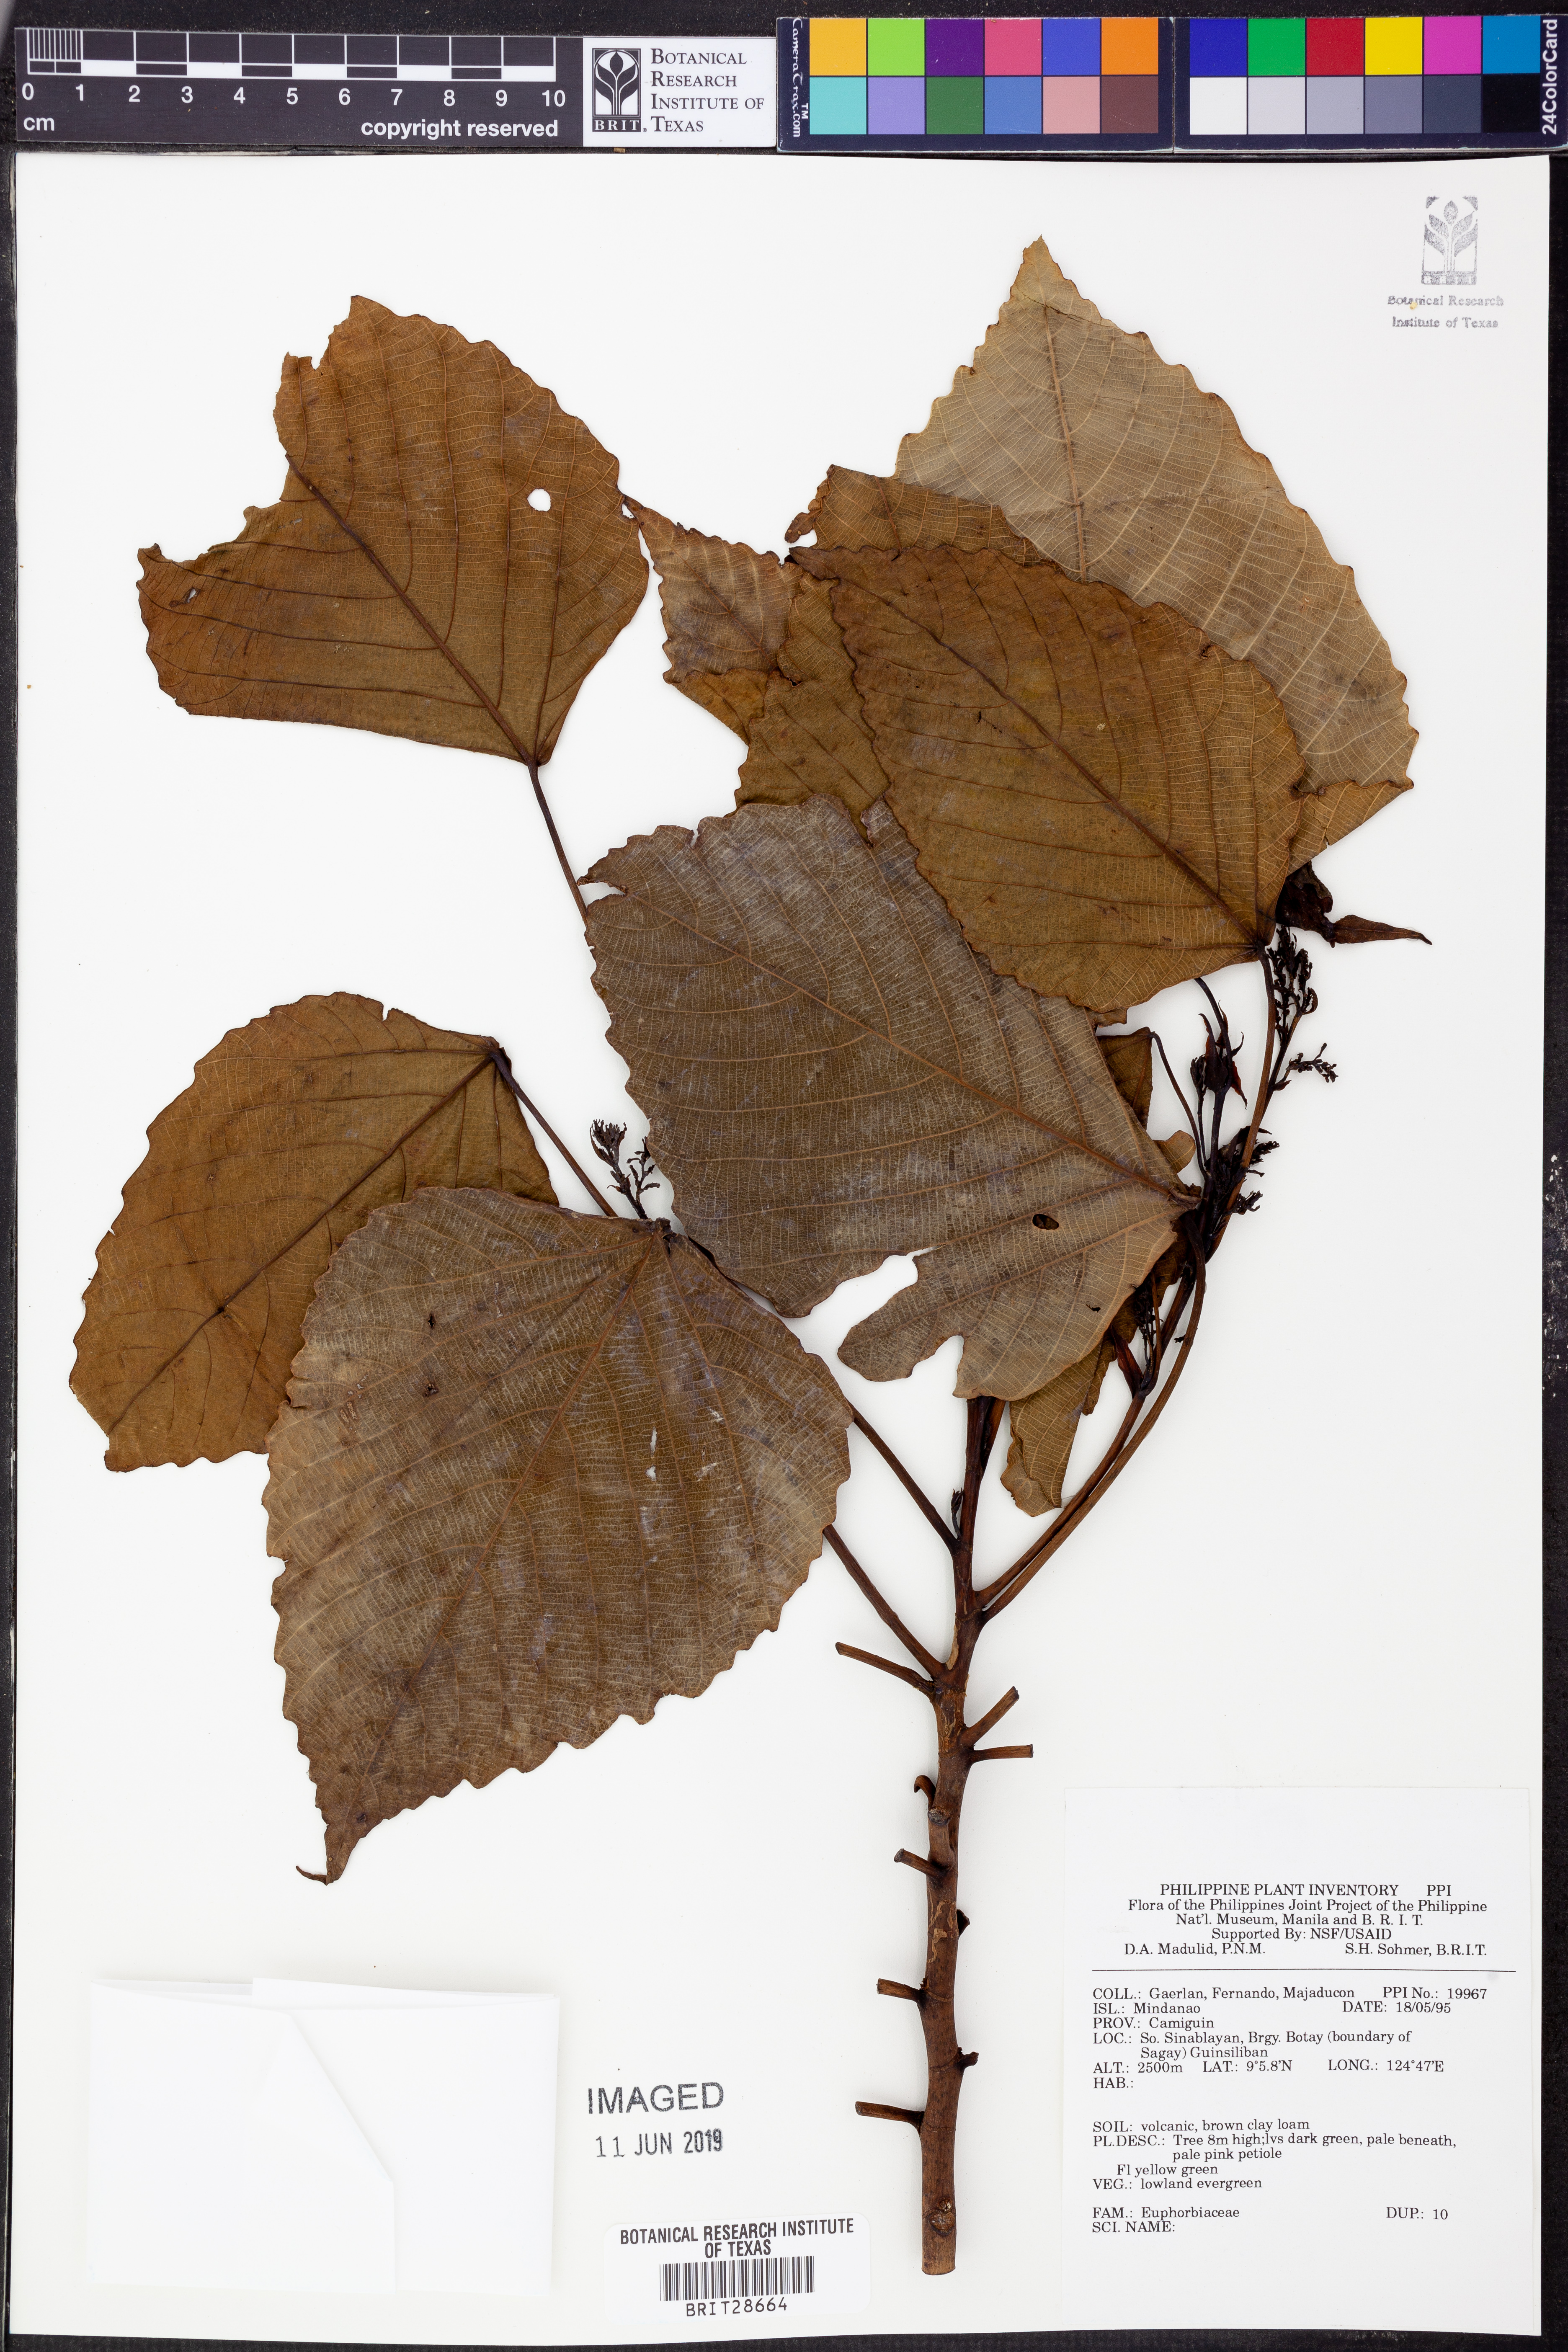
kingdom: Plantae
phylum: Tracheophyta
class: Magnoliopsida
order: Malpighiales
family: Euphorbiaceae
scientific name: Euphorbiaceae
